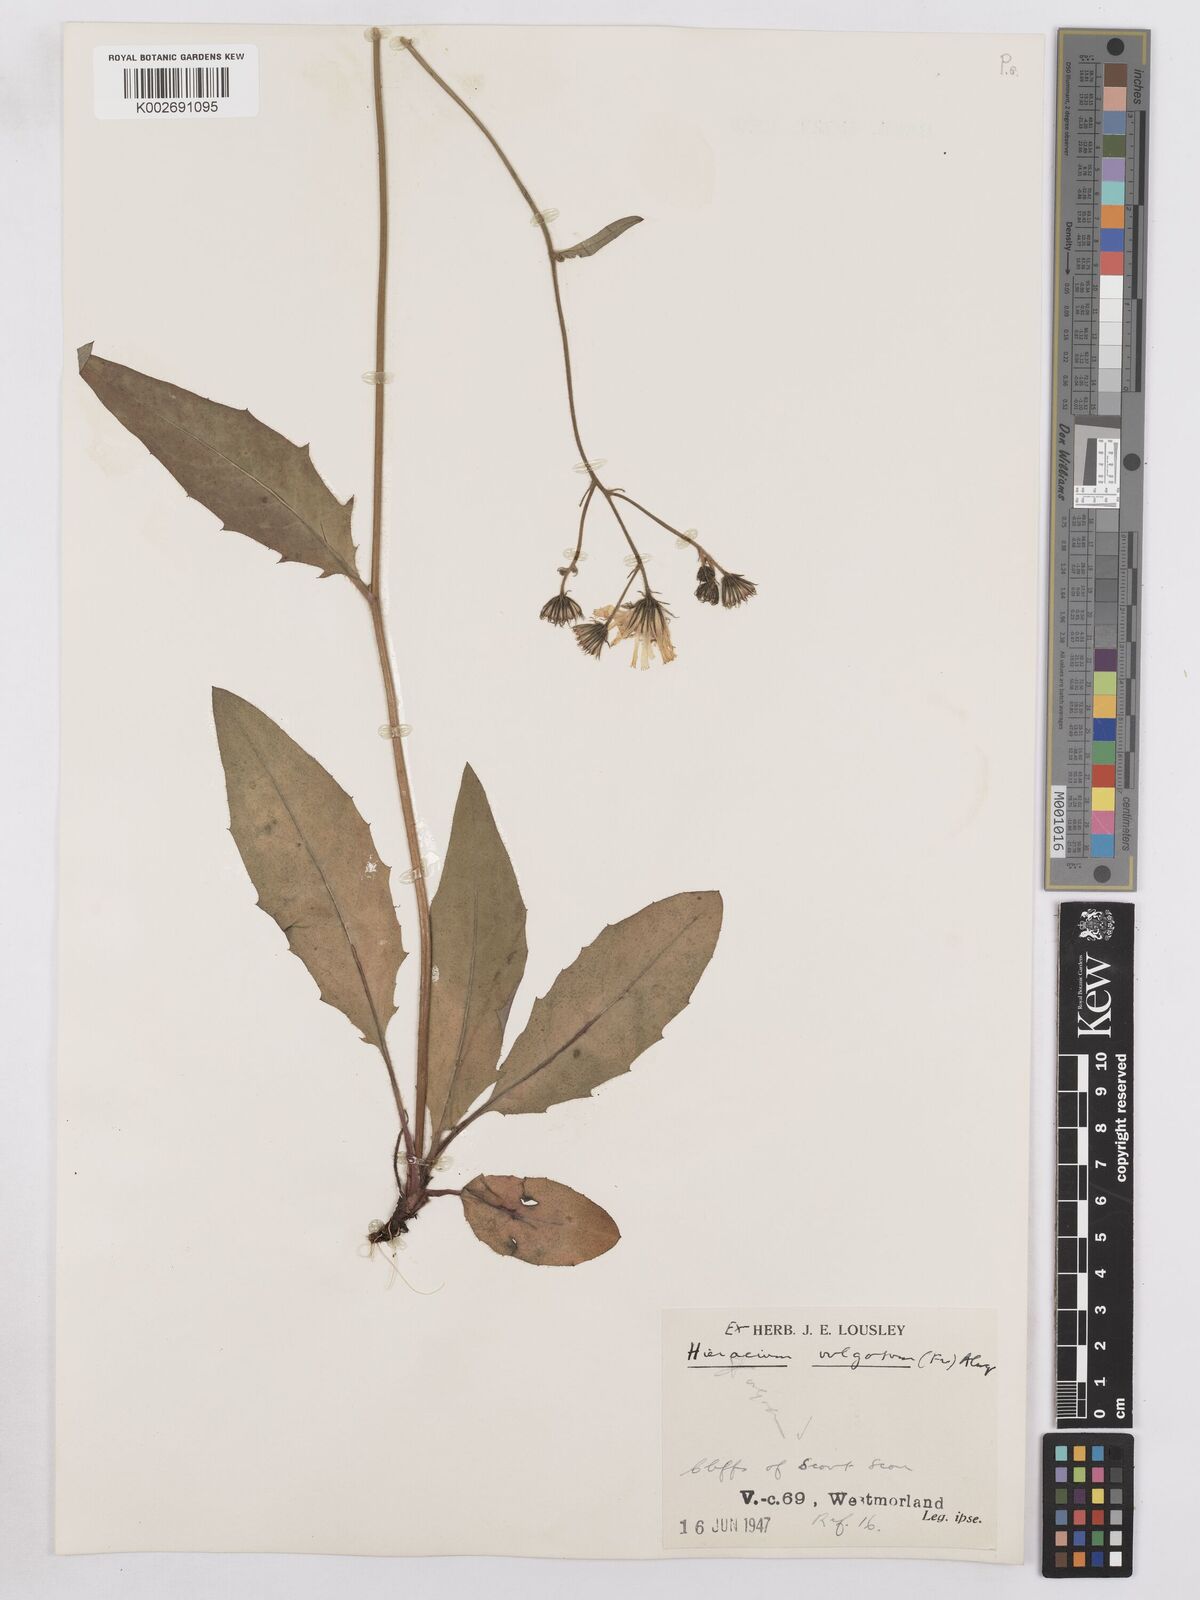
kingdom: Plantae
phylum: Tracheophyta
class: Magnoliopsida
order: Asterales
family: Asteraceae
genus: Hieracium
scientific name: Hieracium lachenalii
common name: Common hawkweed
